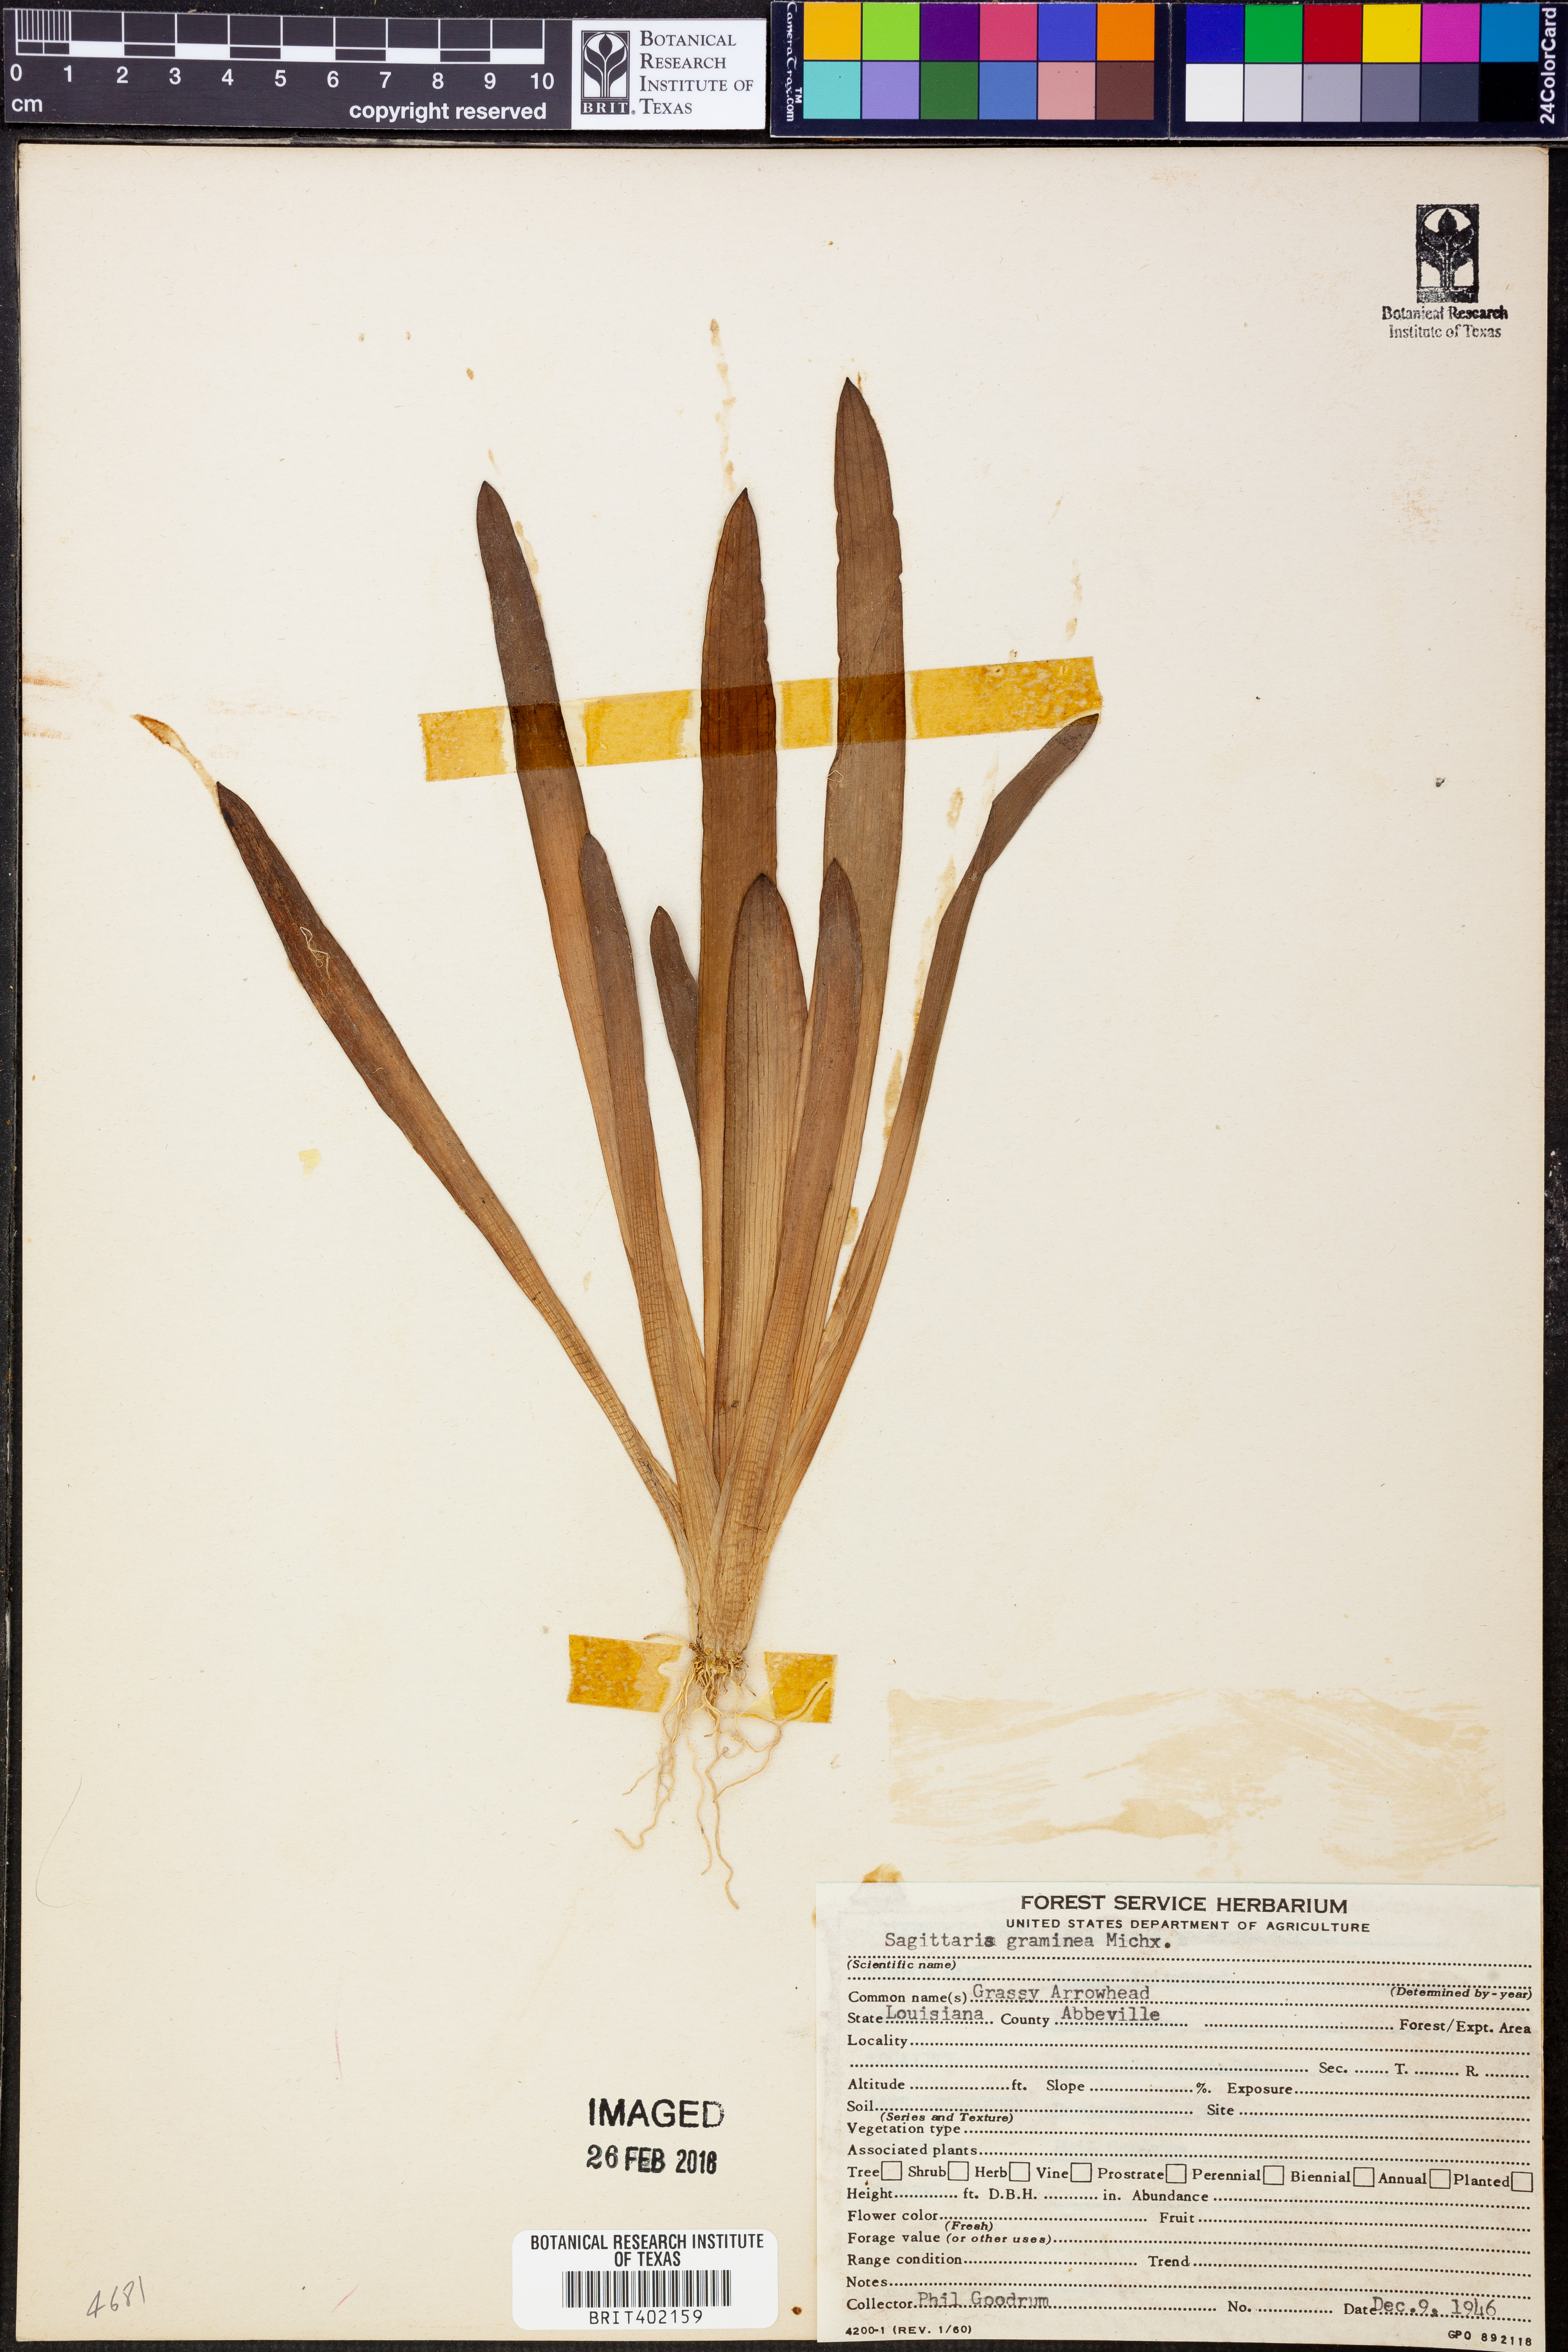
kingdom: Plantae
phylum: Tracheophyta
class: Liliopsida
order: Alismatales
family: Alismataceae
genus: Sagittaria
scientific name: Sagittaria graminea
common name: Grass-leaved arrowhead
